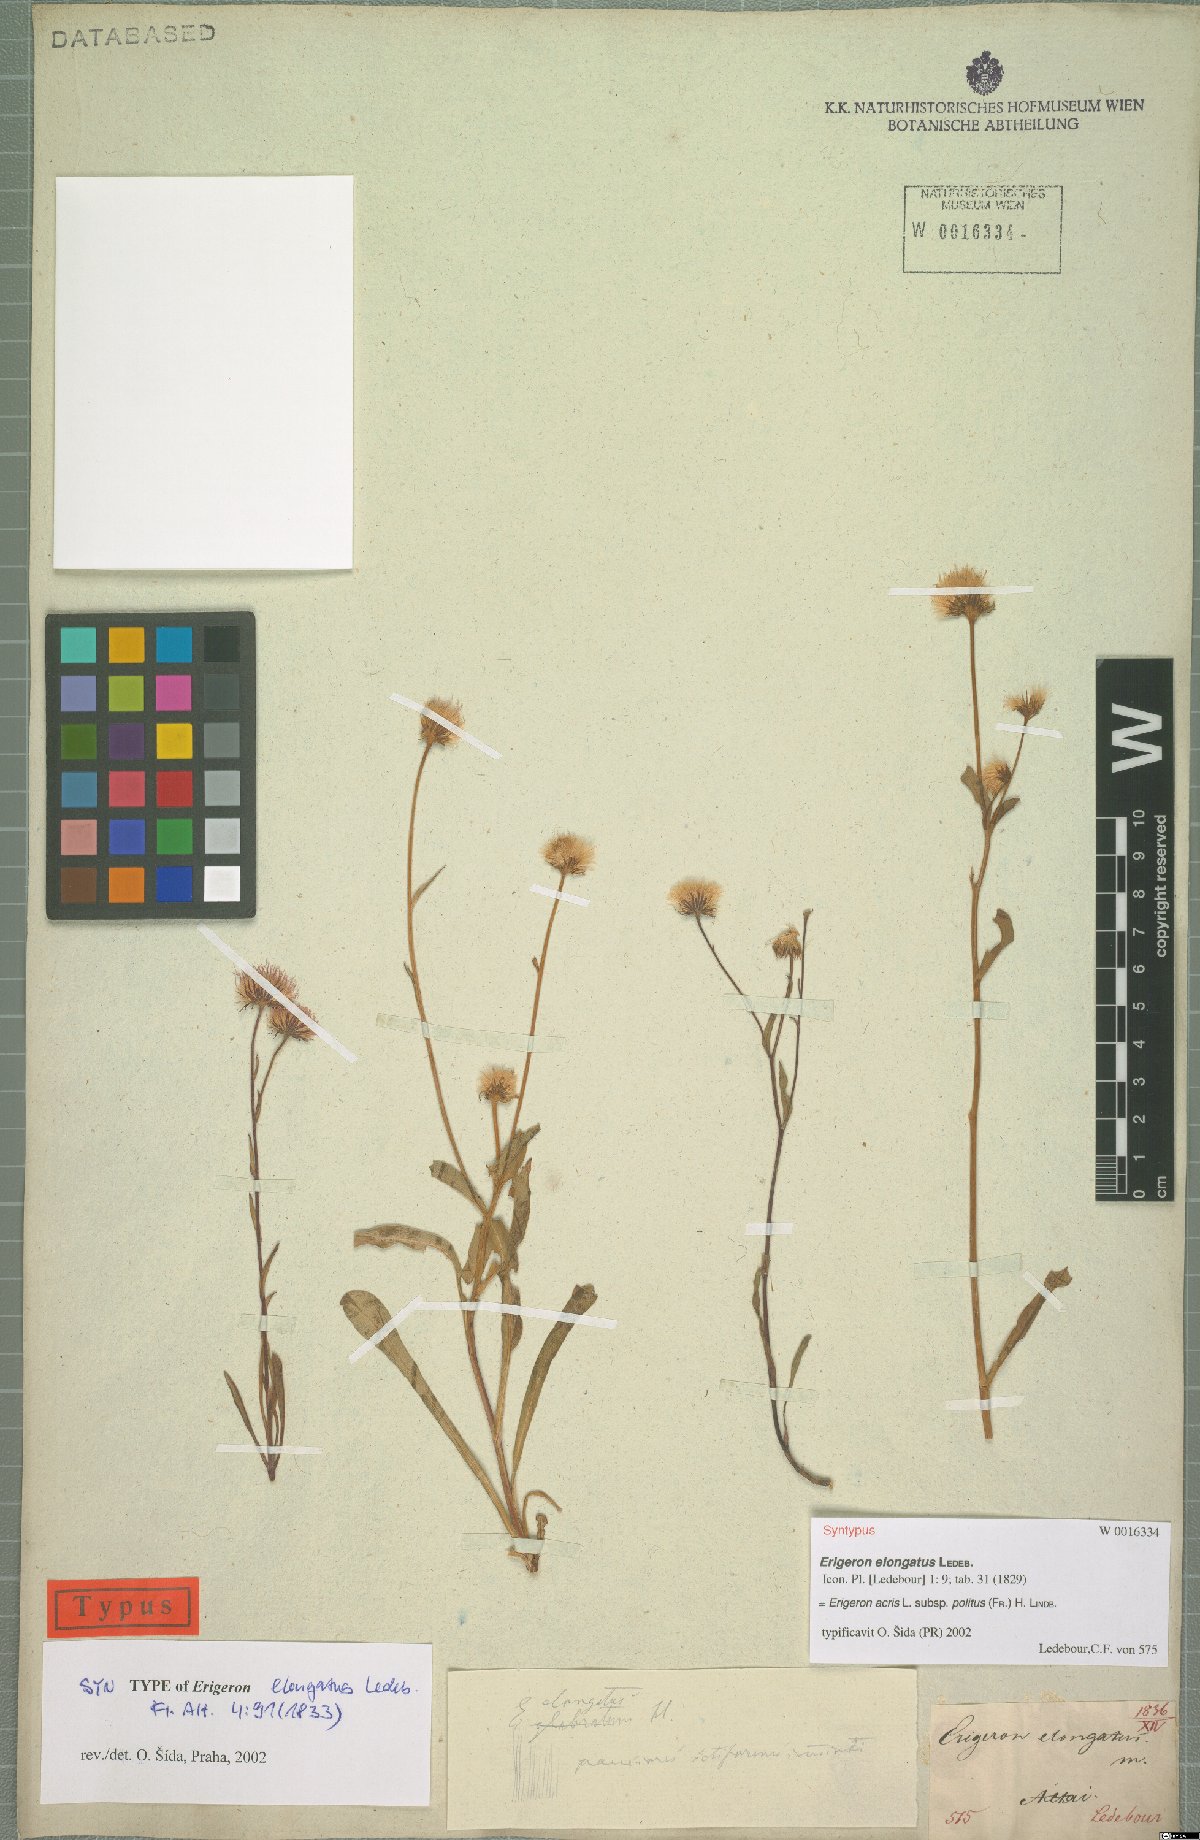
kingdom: Plantae
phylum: Tracheophyta
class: Magnoliopsida
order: Asterales
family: Asteraceae
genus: Erigeron
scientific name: Erigeron politus
